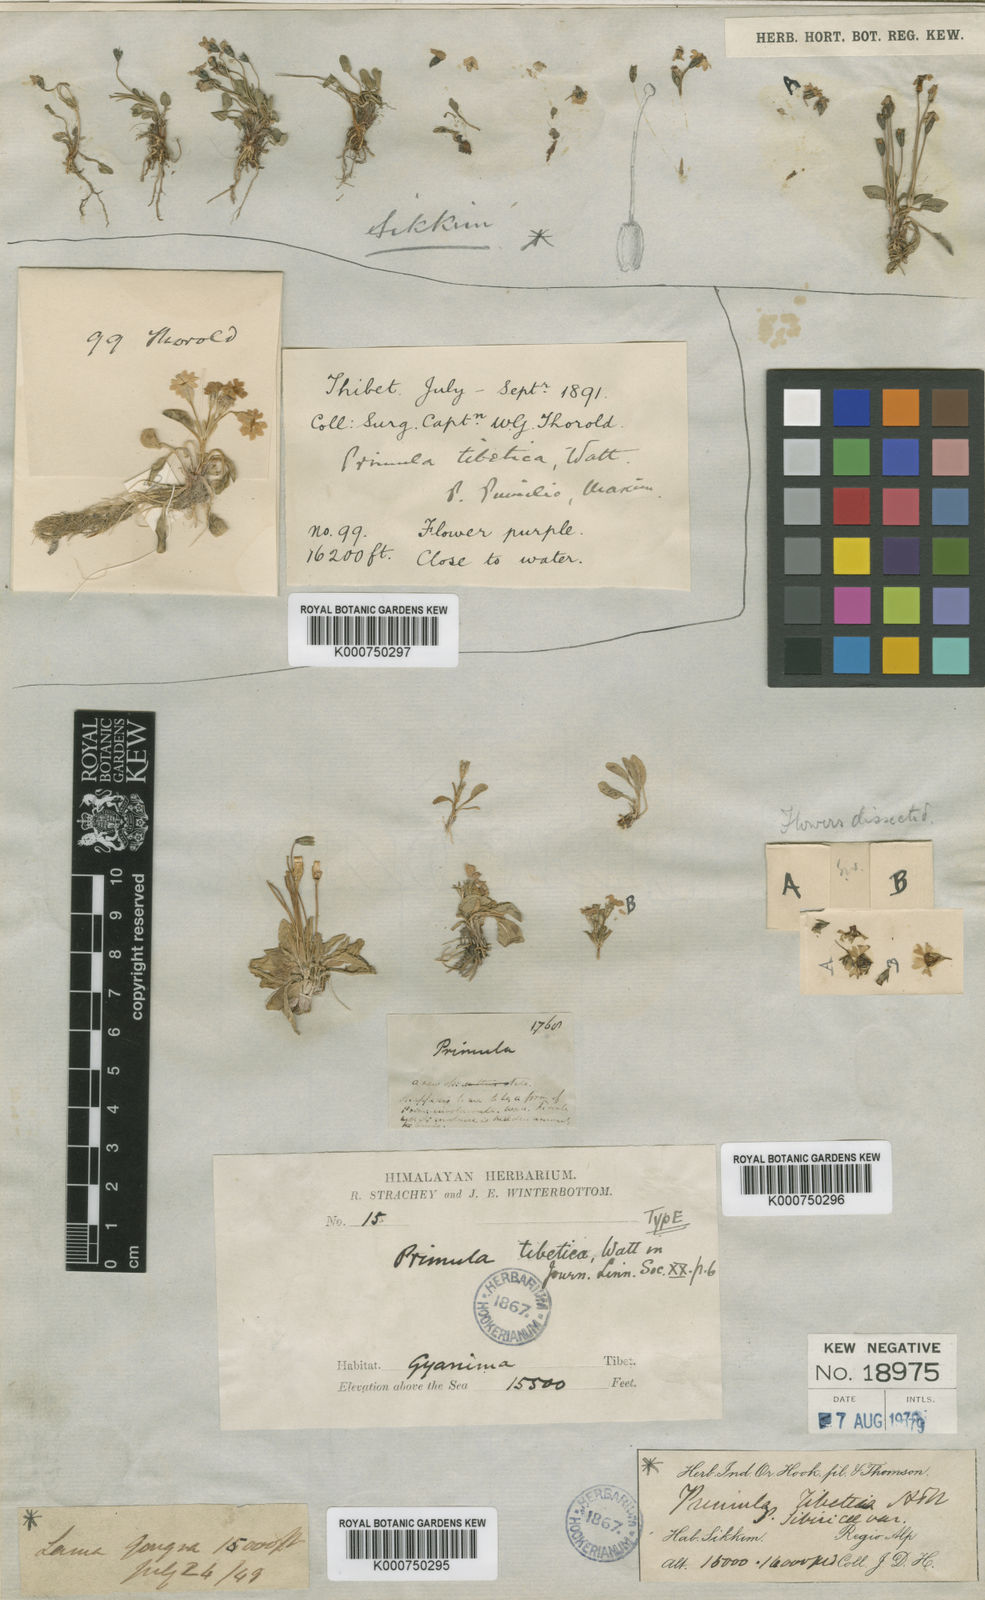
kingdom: Plantae
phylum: Tracheophyta
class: Magnoliopsida
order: Ericales
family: Primulaceae
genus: Primula
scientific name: Primula tibetica
